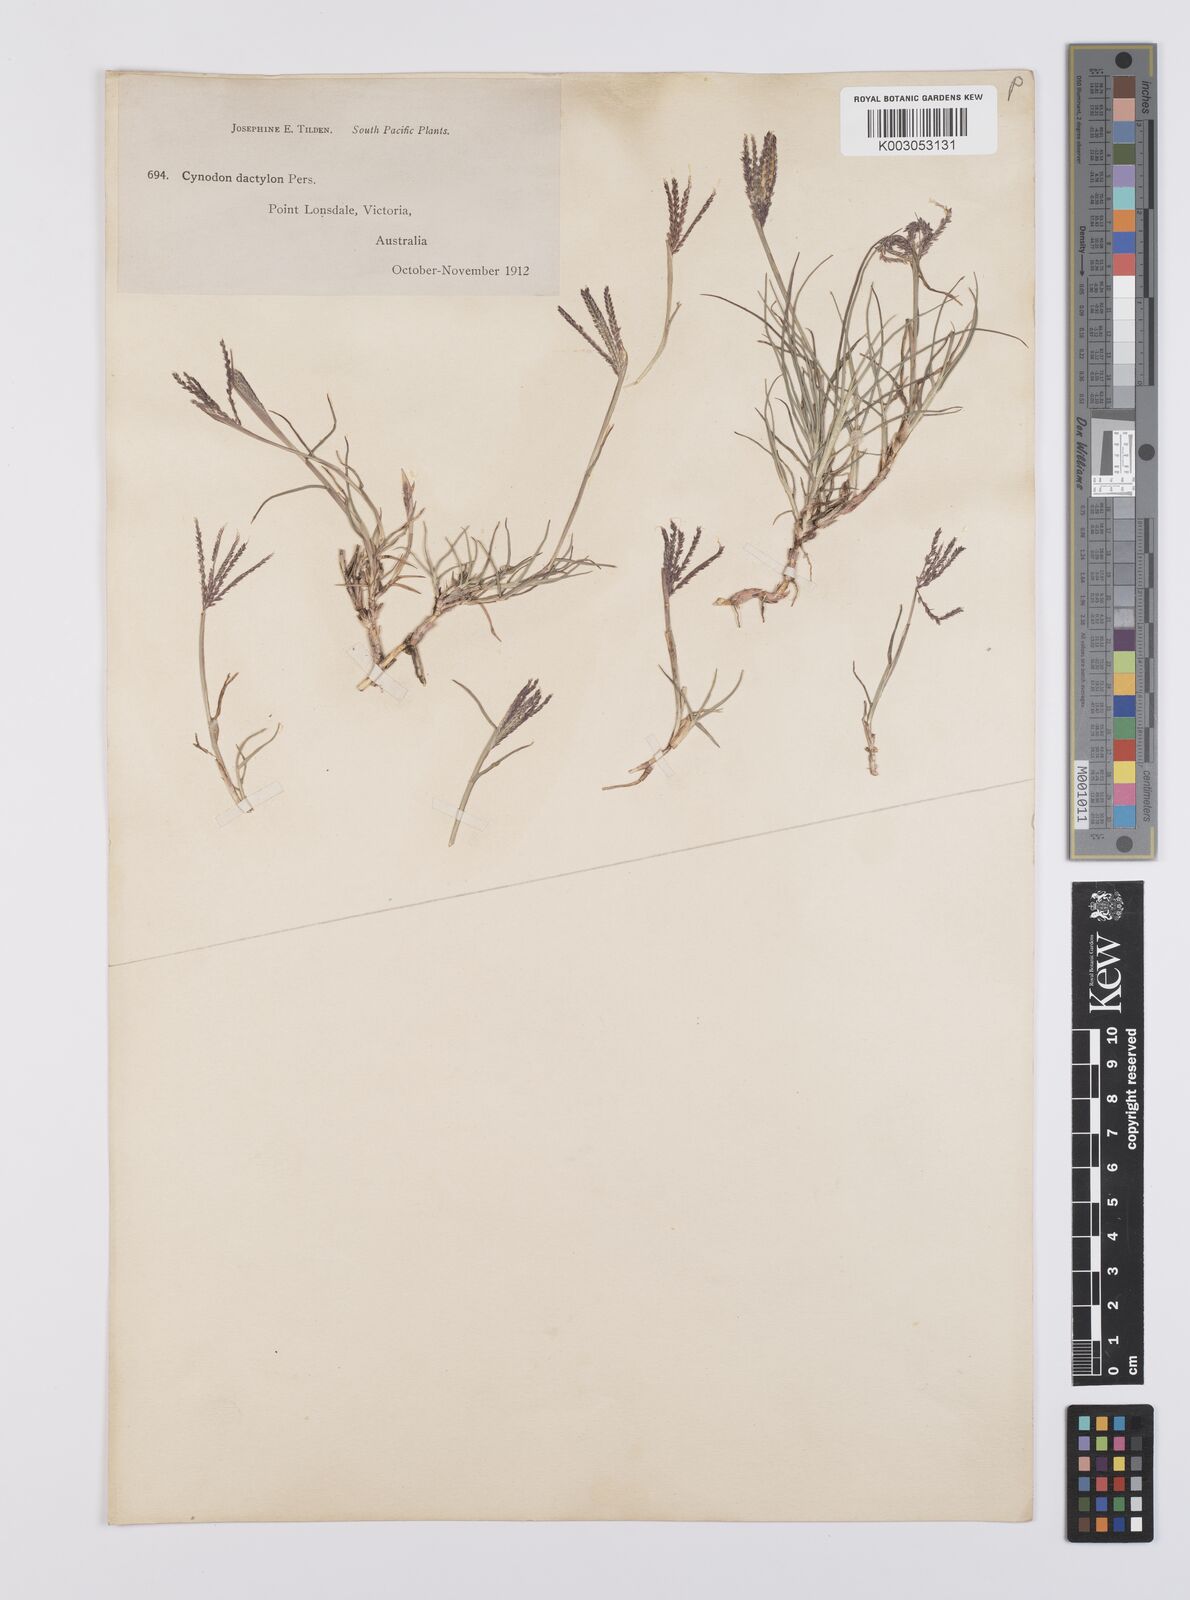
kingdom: Plantae
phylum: Tracheophyta
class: Liliopsida
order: Poales
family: Poaceae
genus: Cynodon
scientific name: Cynodon dactylon
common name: Bermuda grass
